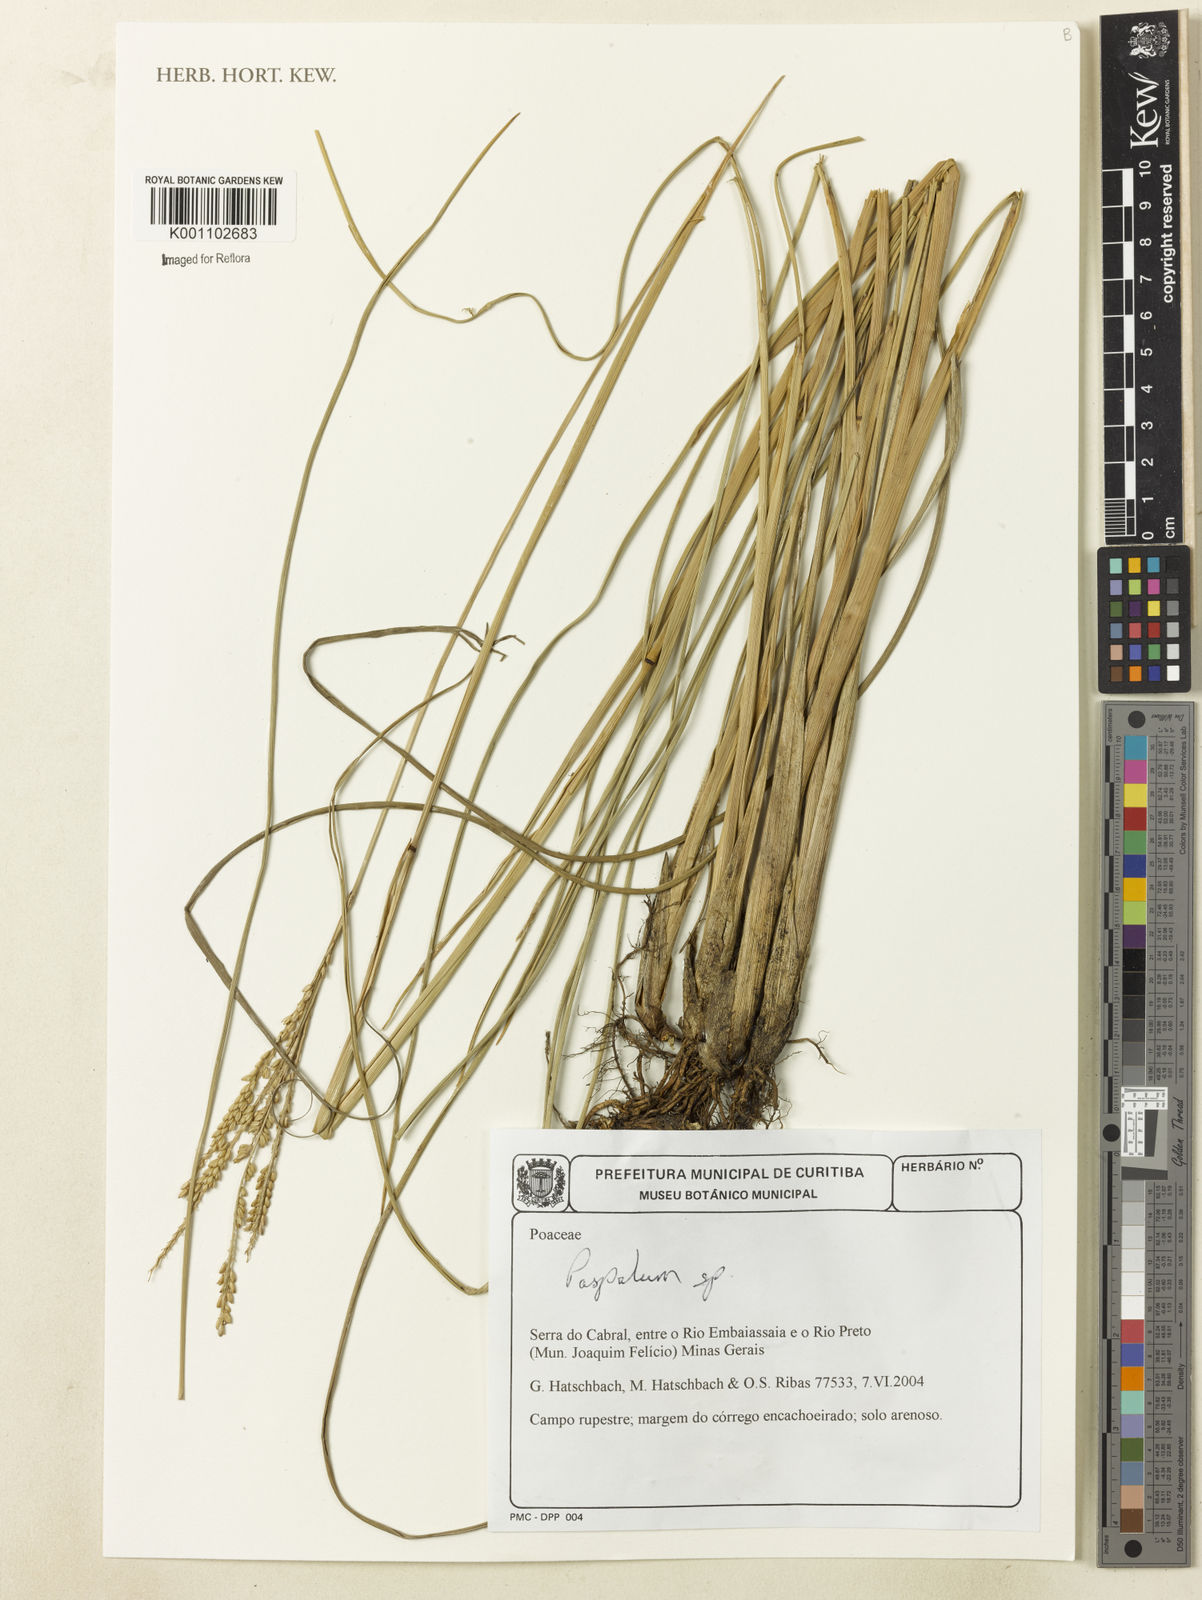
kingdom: Plantae
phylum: Tracheophyta
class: Liliopsida
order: Poales
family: Poaceae
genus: Paspalum
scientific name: Paspalum
